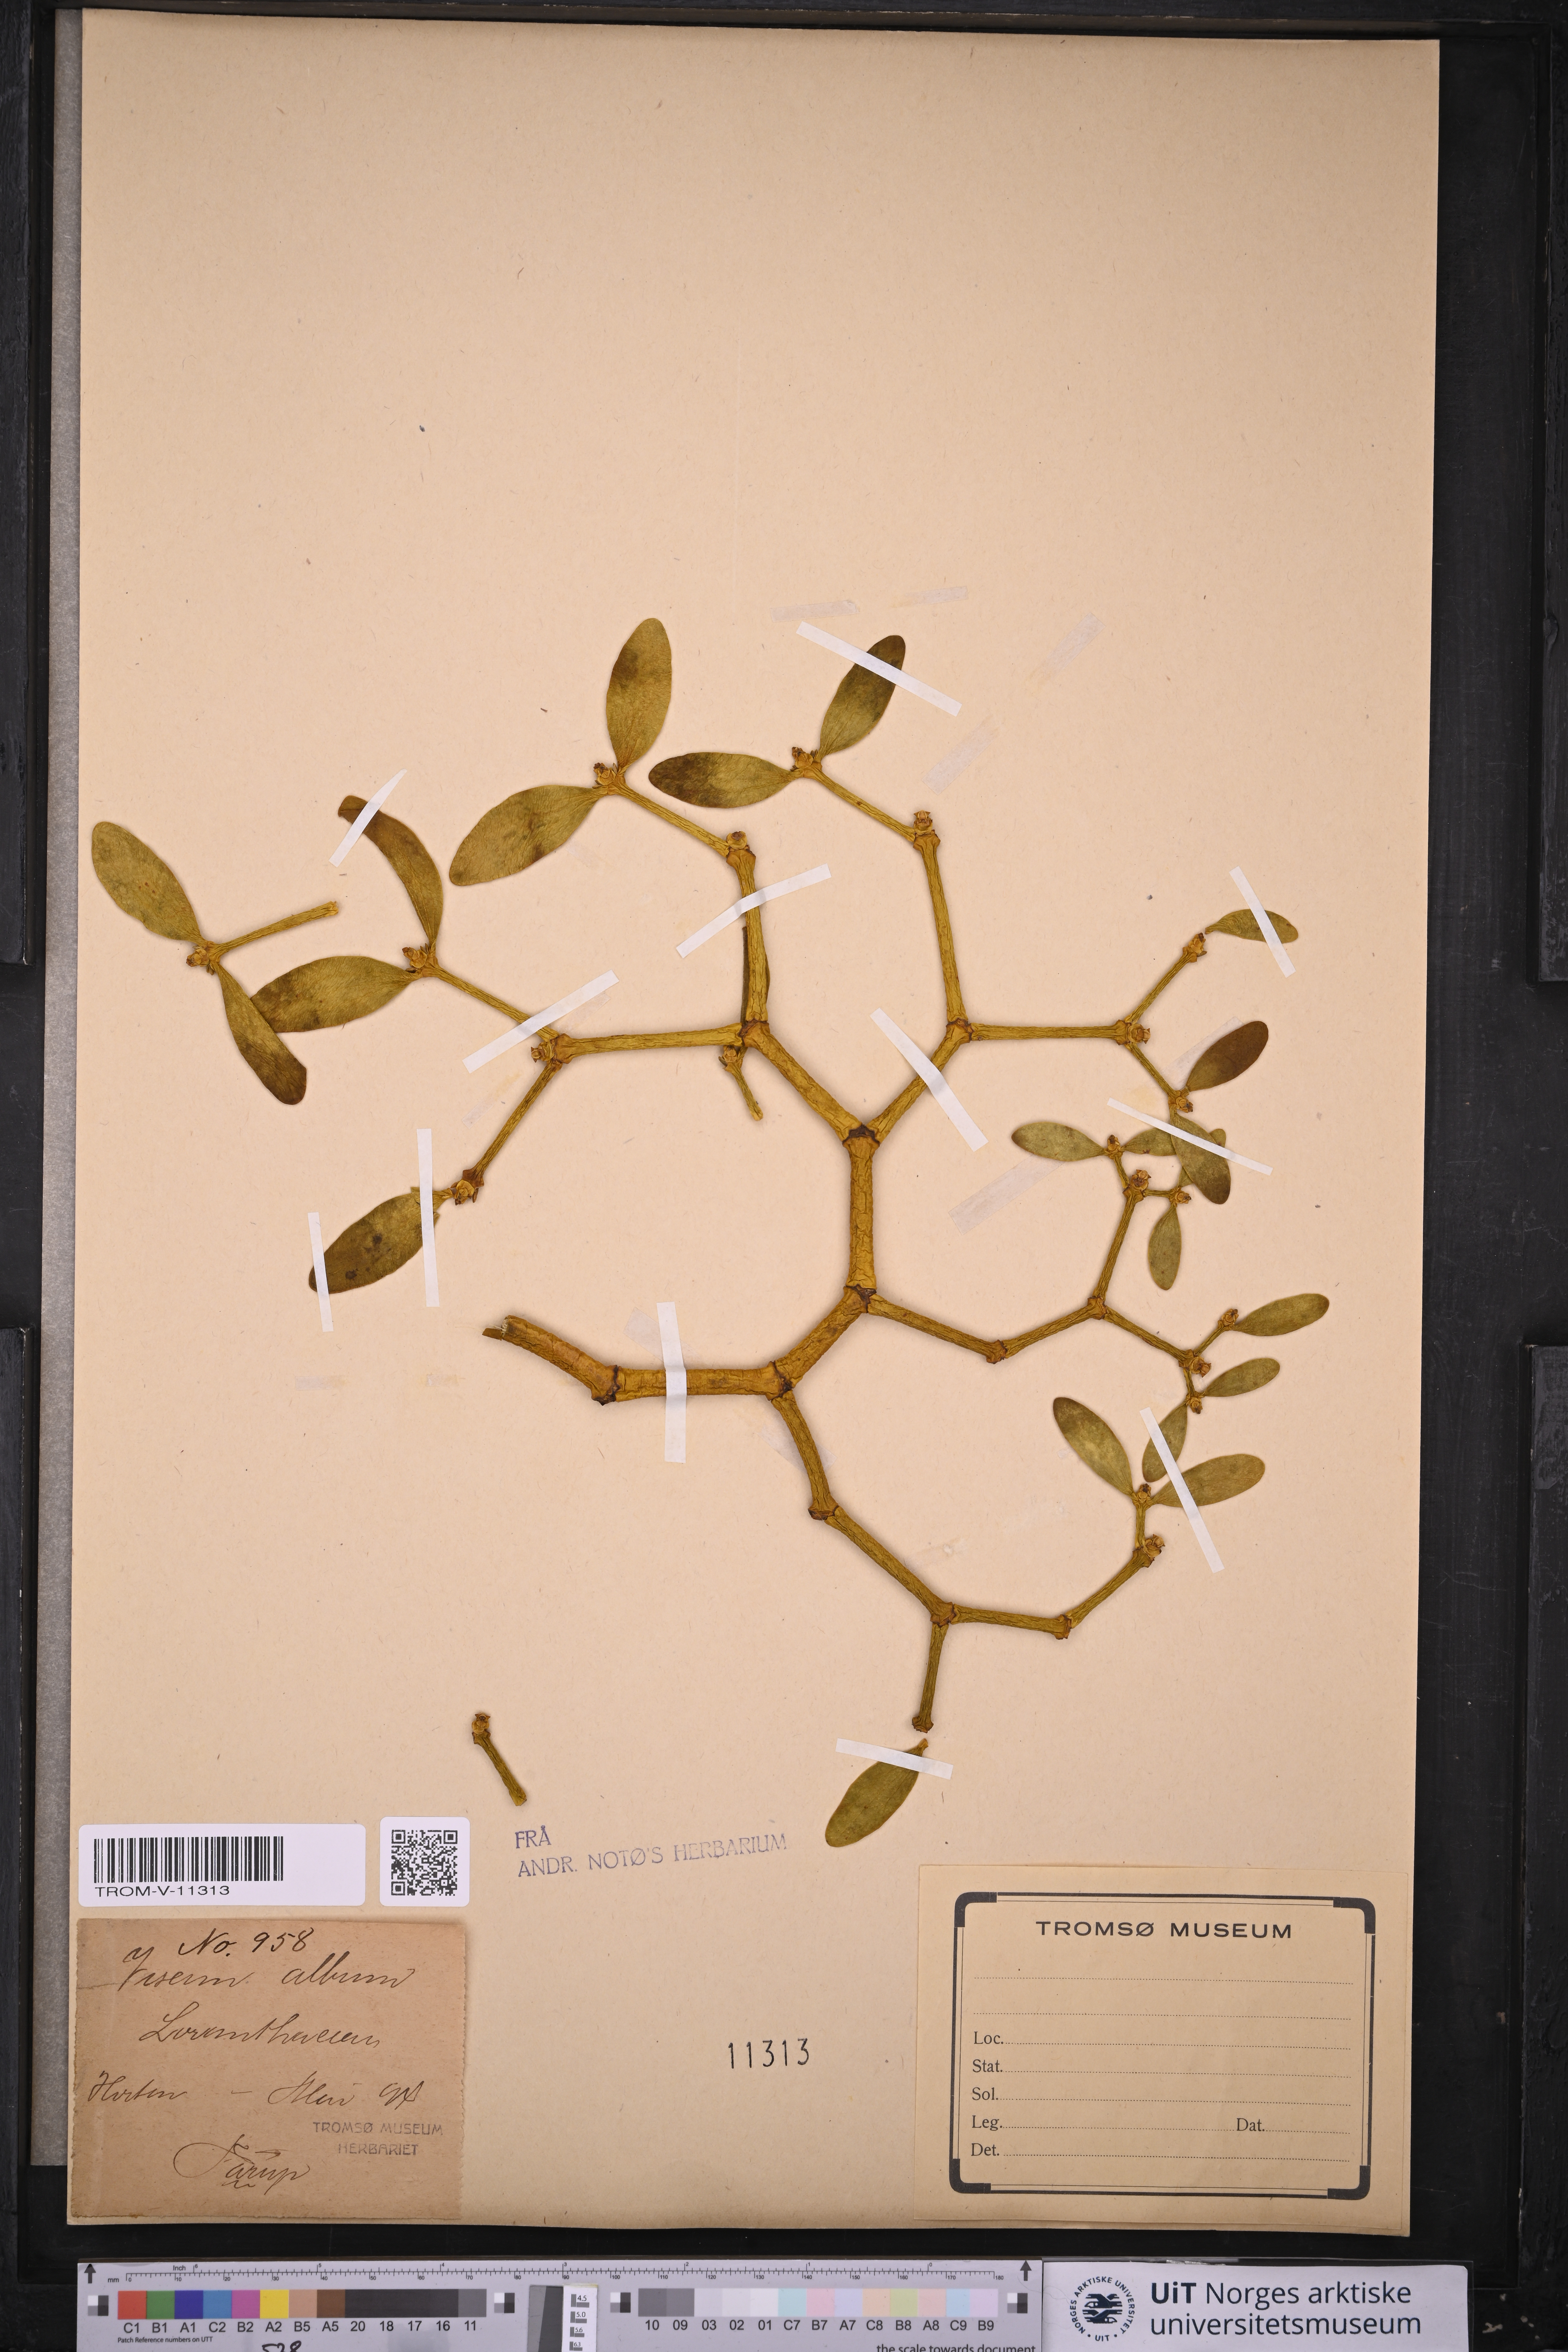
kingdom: Plantae
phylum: Tracheophyta
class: Magnoliopsida
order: Santalales
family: Viscaceae
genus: Viscum
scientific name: Viscum album
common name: Mistletoe
